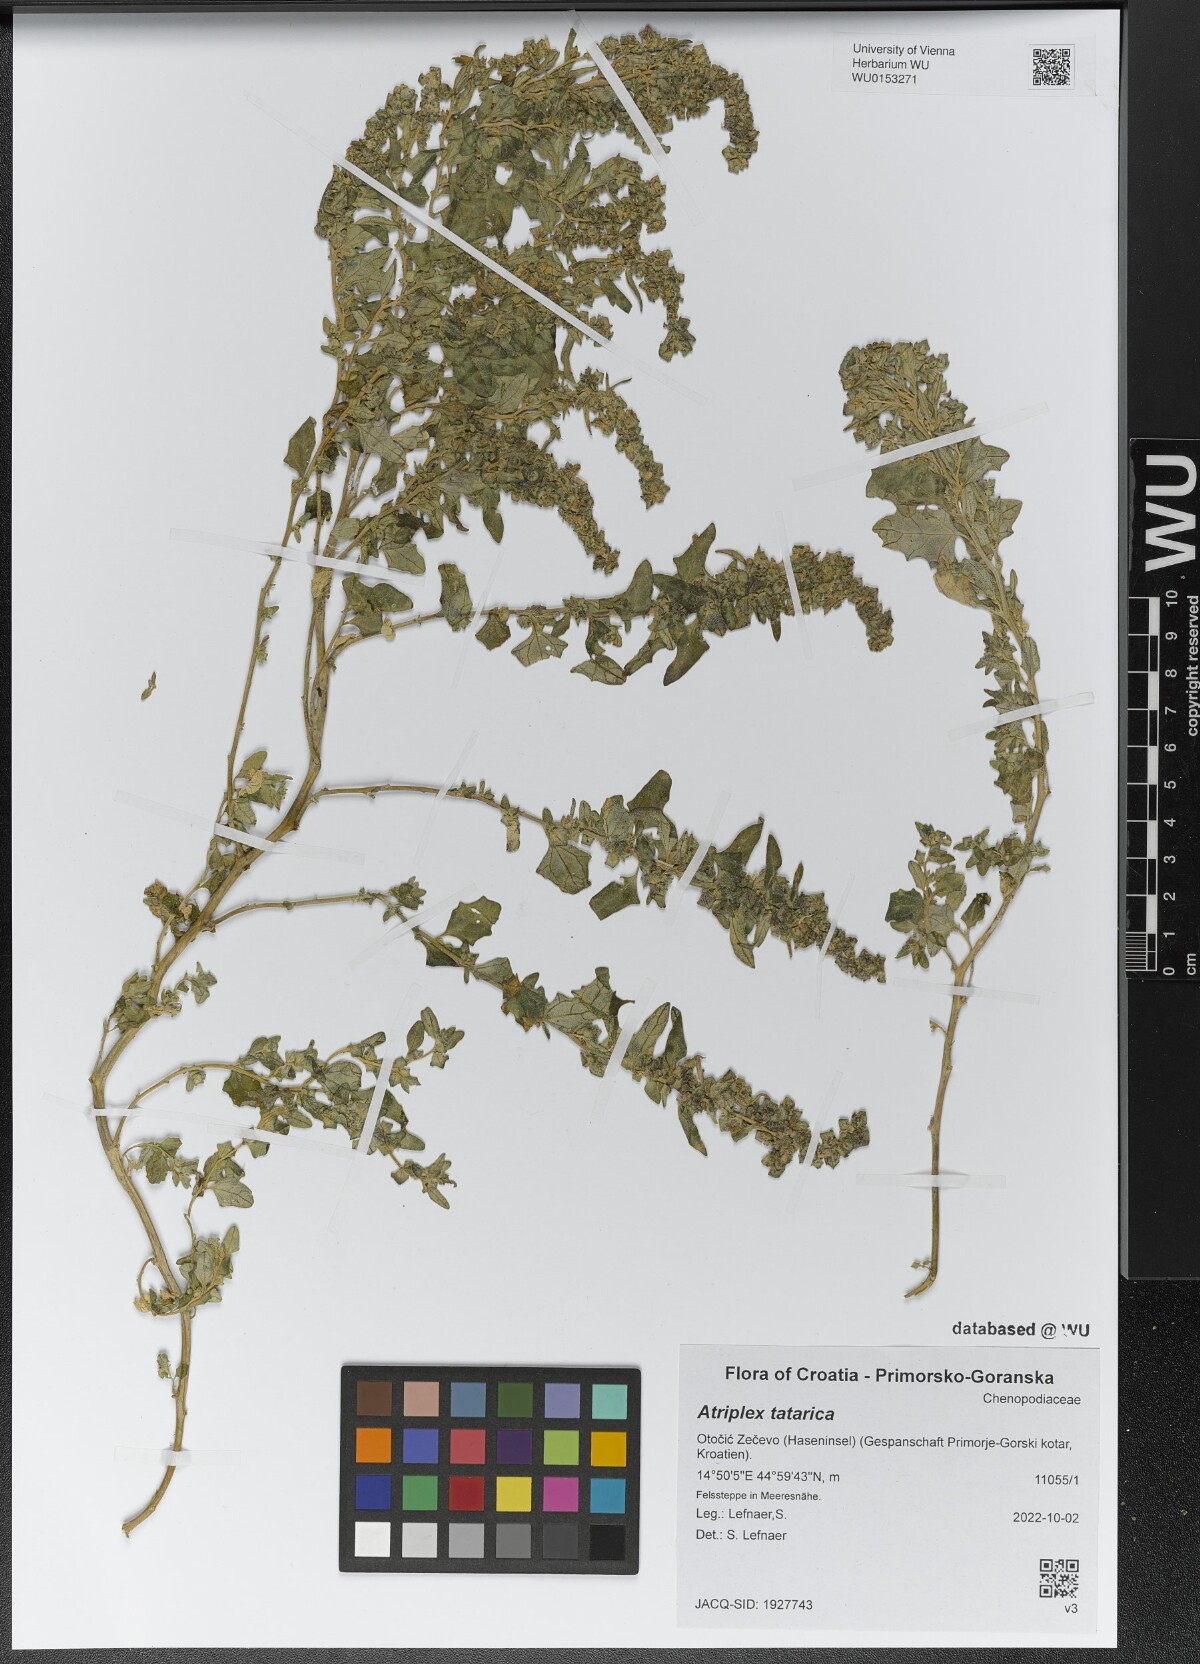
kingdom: Plantae
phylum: Tracheophyta
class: Magnoliopsida
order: Caryophyllales
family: Amaranthaceae
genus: Atriplex
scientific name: Atriplex tatarica
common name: Tatarian orache
